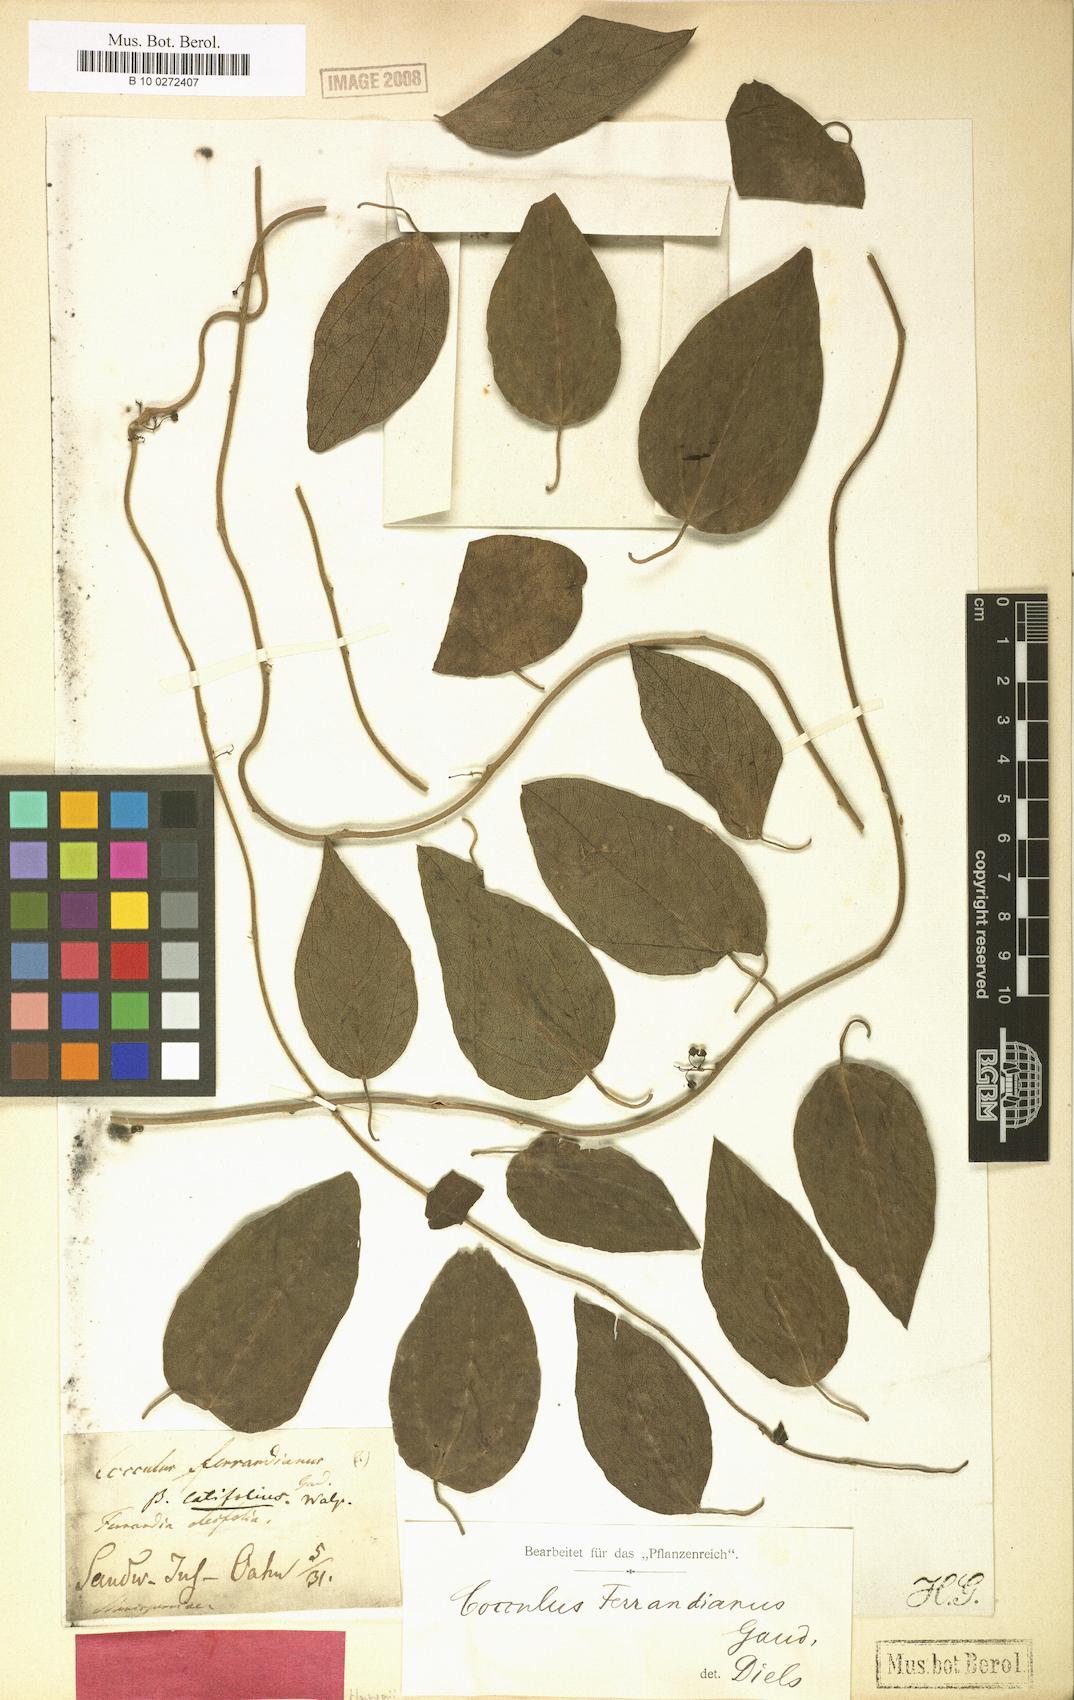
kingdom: Plantae
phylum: Tracheophyta
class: Magnoliopsida
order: Ranunculales
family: Menispermaceae
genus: Cocculus
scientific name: Cocculus orbiculatus
